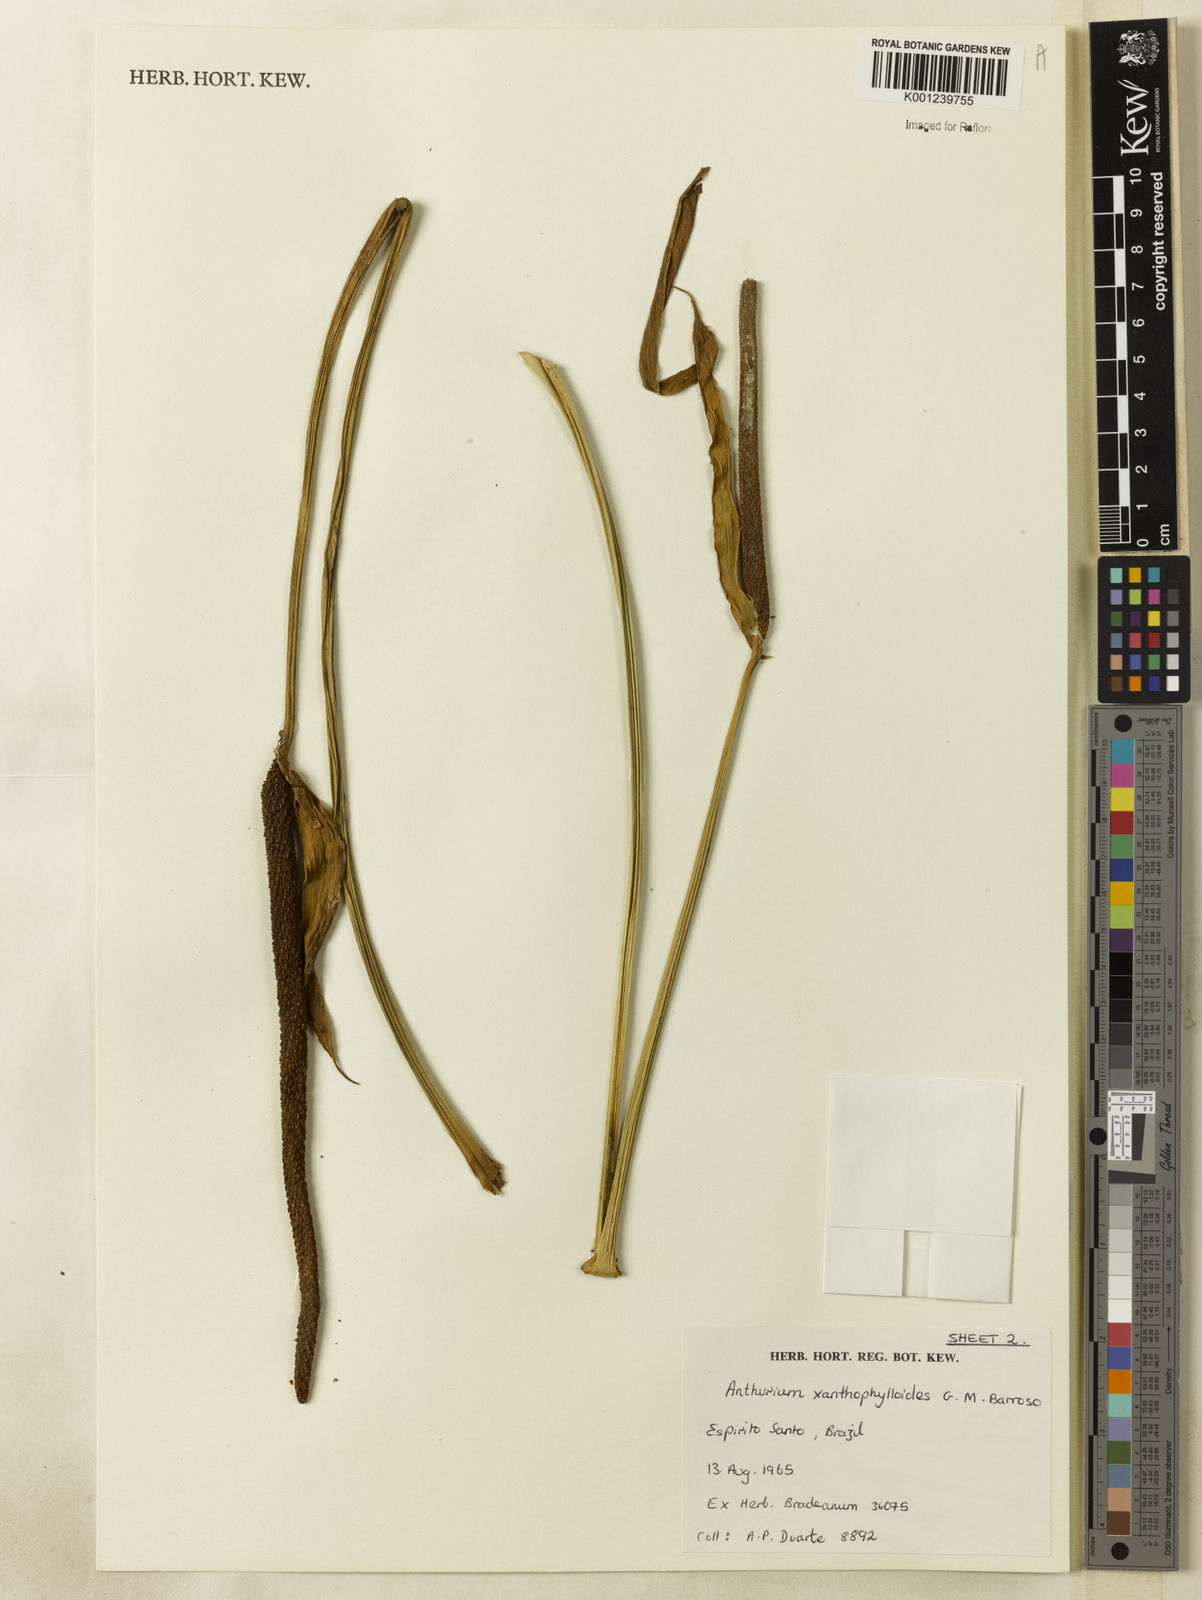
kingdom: Plantae
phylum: Tracheophyta
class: Liliopsida
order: Alismatales
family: Araceae
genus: Anthurium
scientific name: Anthurium xanthophylloides
